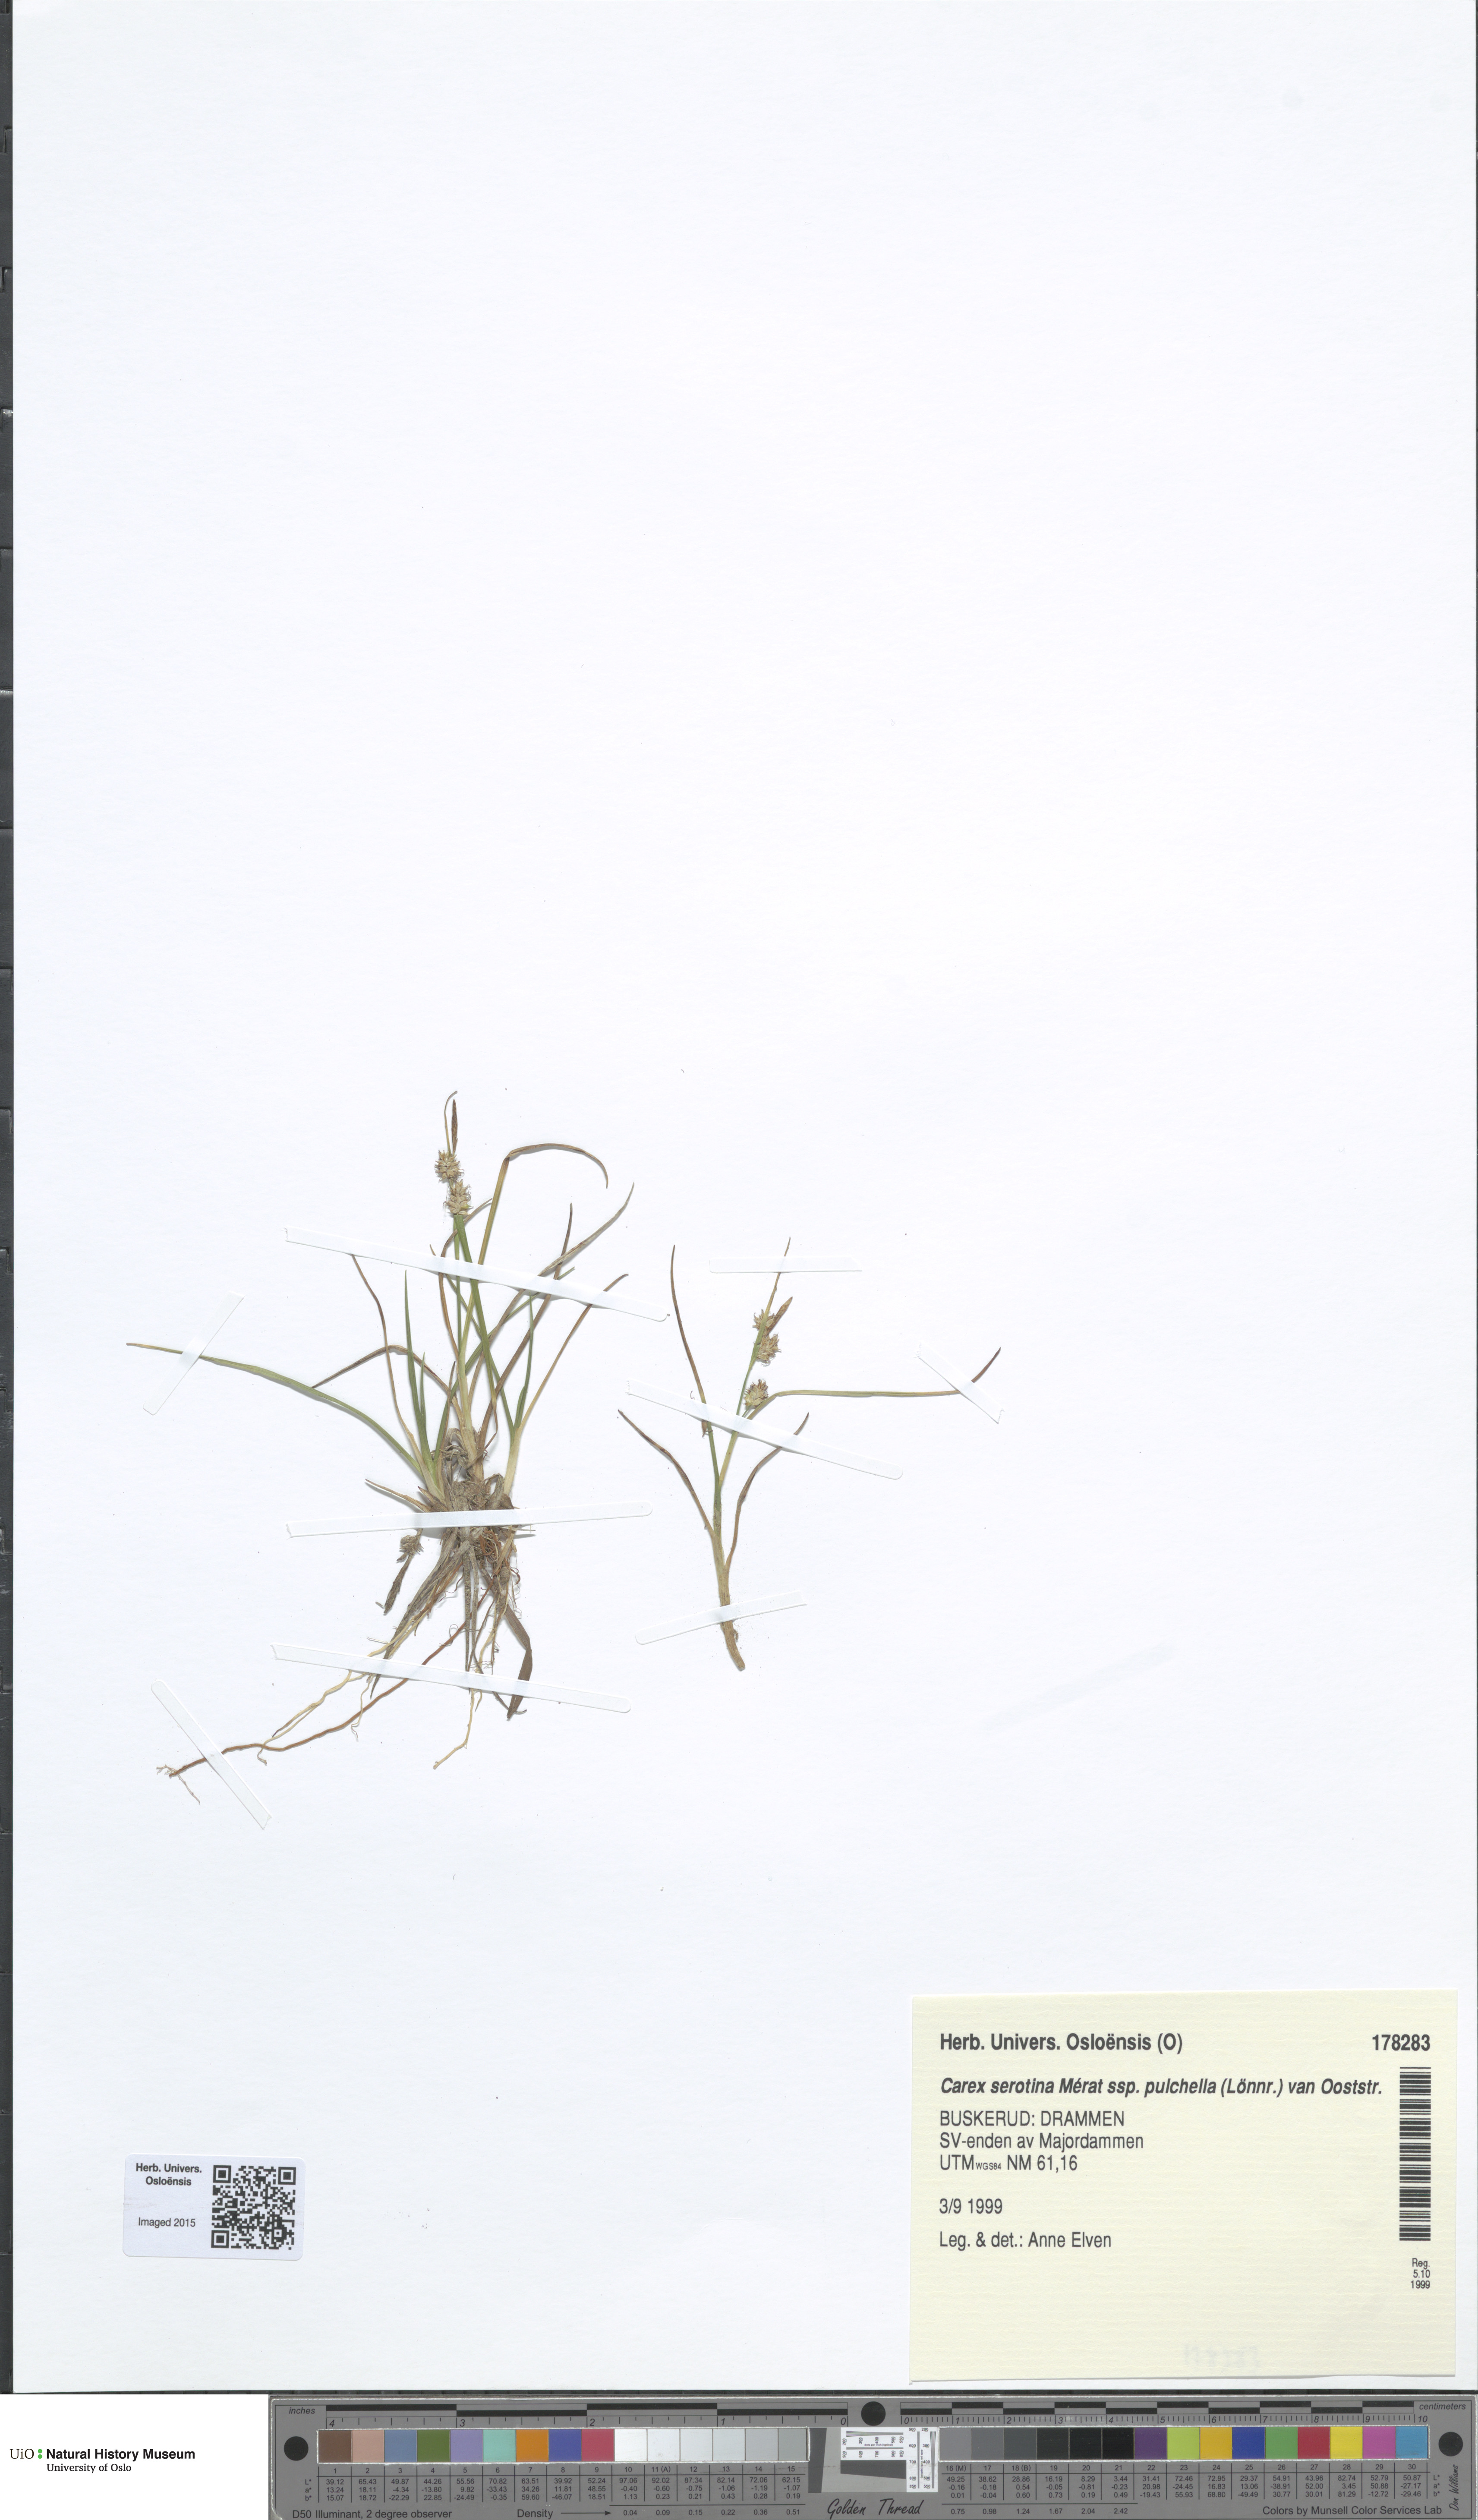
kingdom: Plantae
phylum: Tracheophyta
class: Liliopsida
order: Poales
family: Cyperaceae
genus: Carex
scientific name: Carex oederi
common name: Common & small-fruited yellow-sedge
